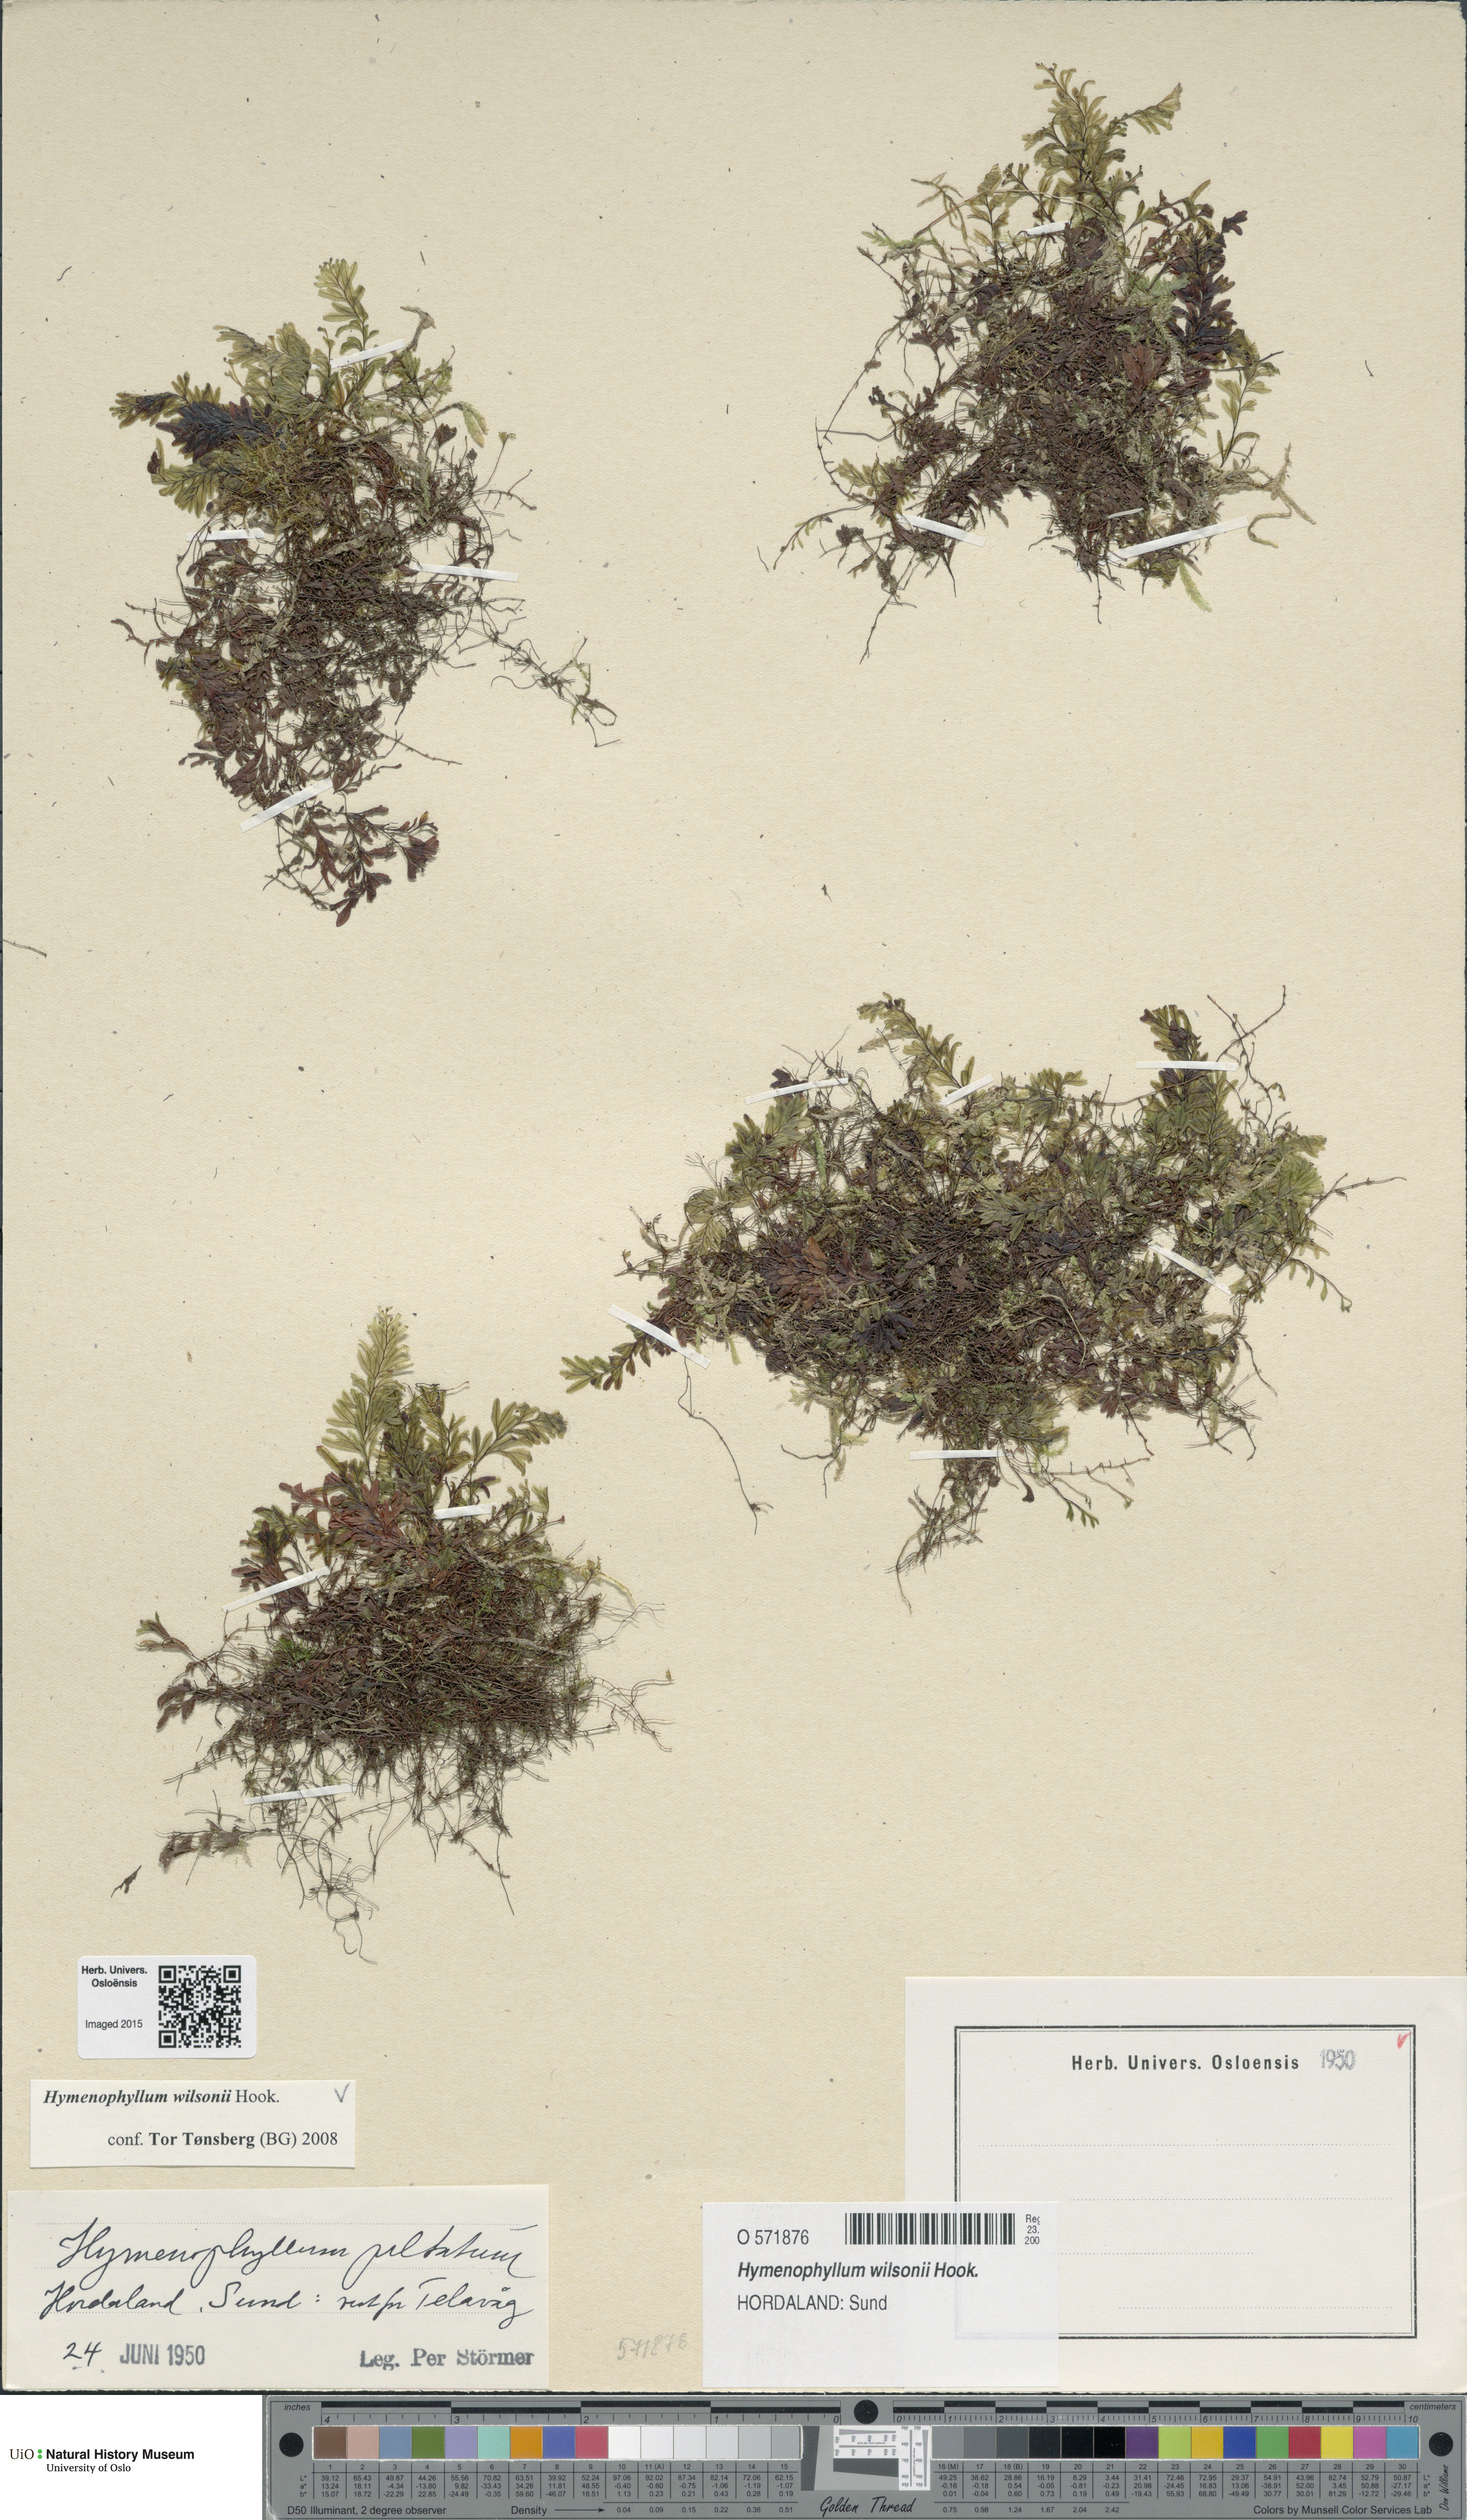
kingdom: Plantae
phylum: Tracheophyta
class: Polypodiopsida
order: Hymenophyllales
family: Hymenophyllaceae
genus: Hymenophyllum
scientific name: Hymenophyllum peltatum
